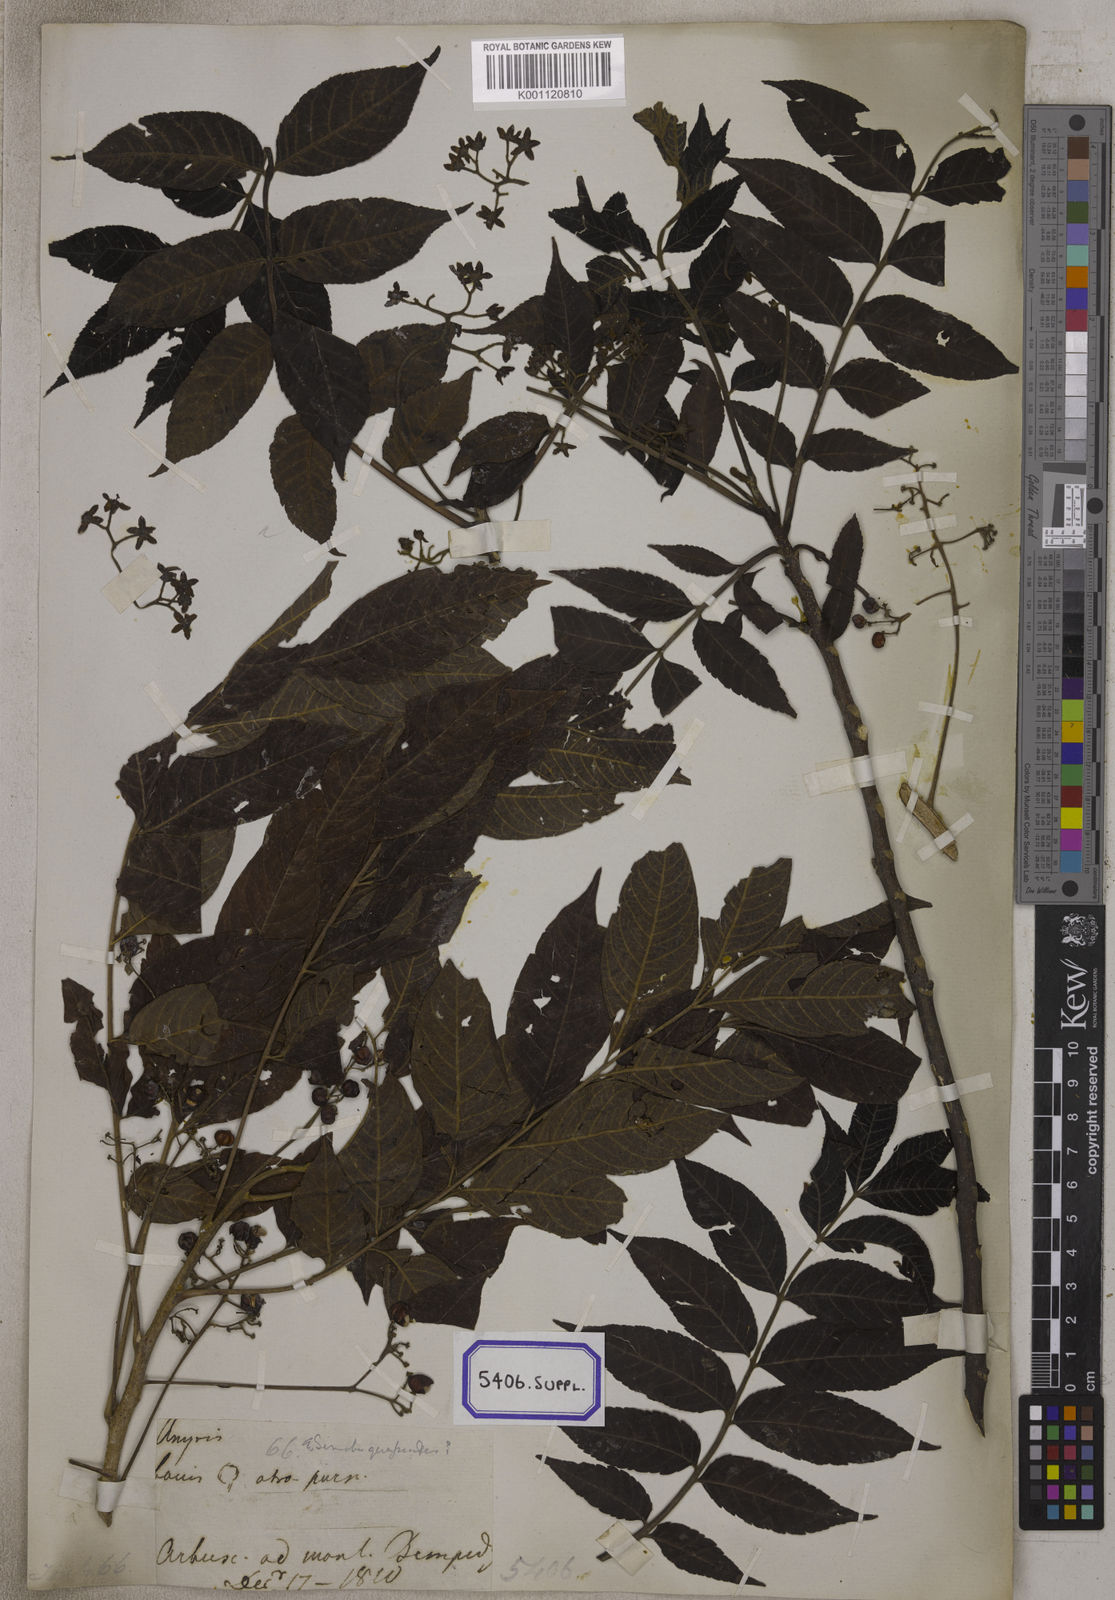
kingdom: Plantae
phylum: Tracheophyta
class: Magnoliopsida
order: Fabales
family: Fabaceae
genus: Crotalaria
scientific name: Crotalaria spectabilis
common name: Showy rattlebox
